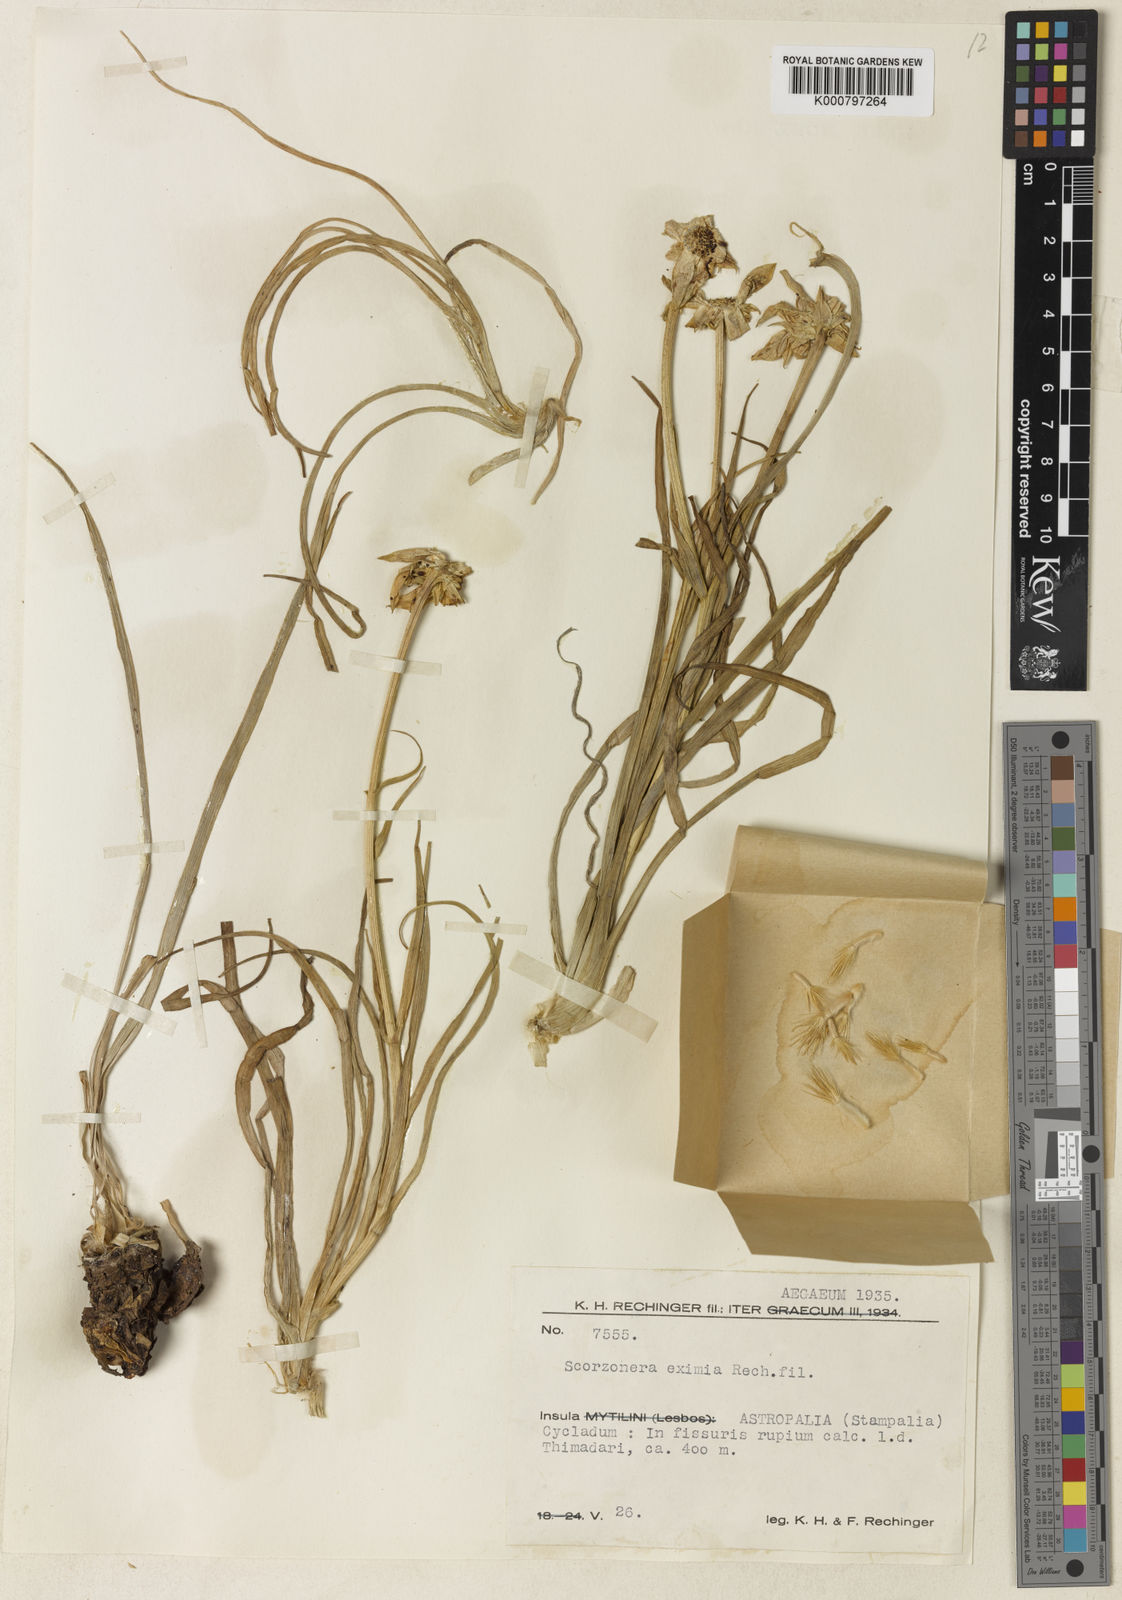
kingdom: Plantae
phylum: Tracheophyta
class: Magnoliopsida
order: Asterales
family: Asteraceae
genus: Gelasia
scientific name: Gelasia araneosa
